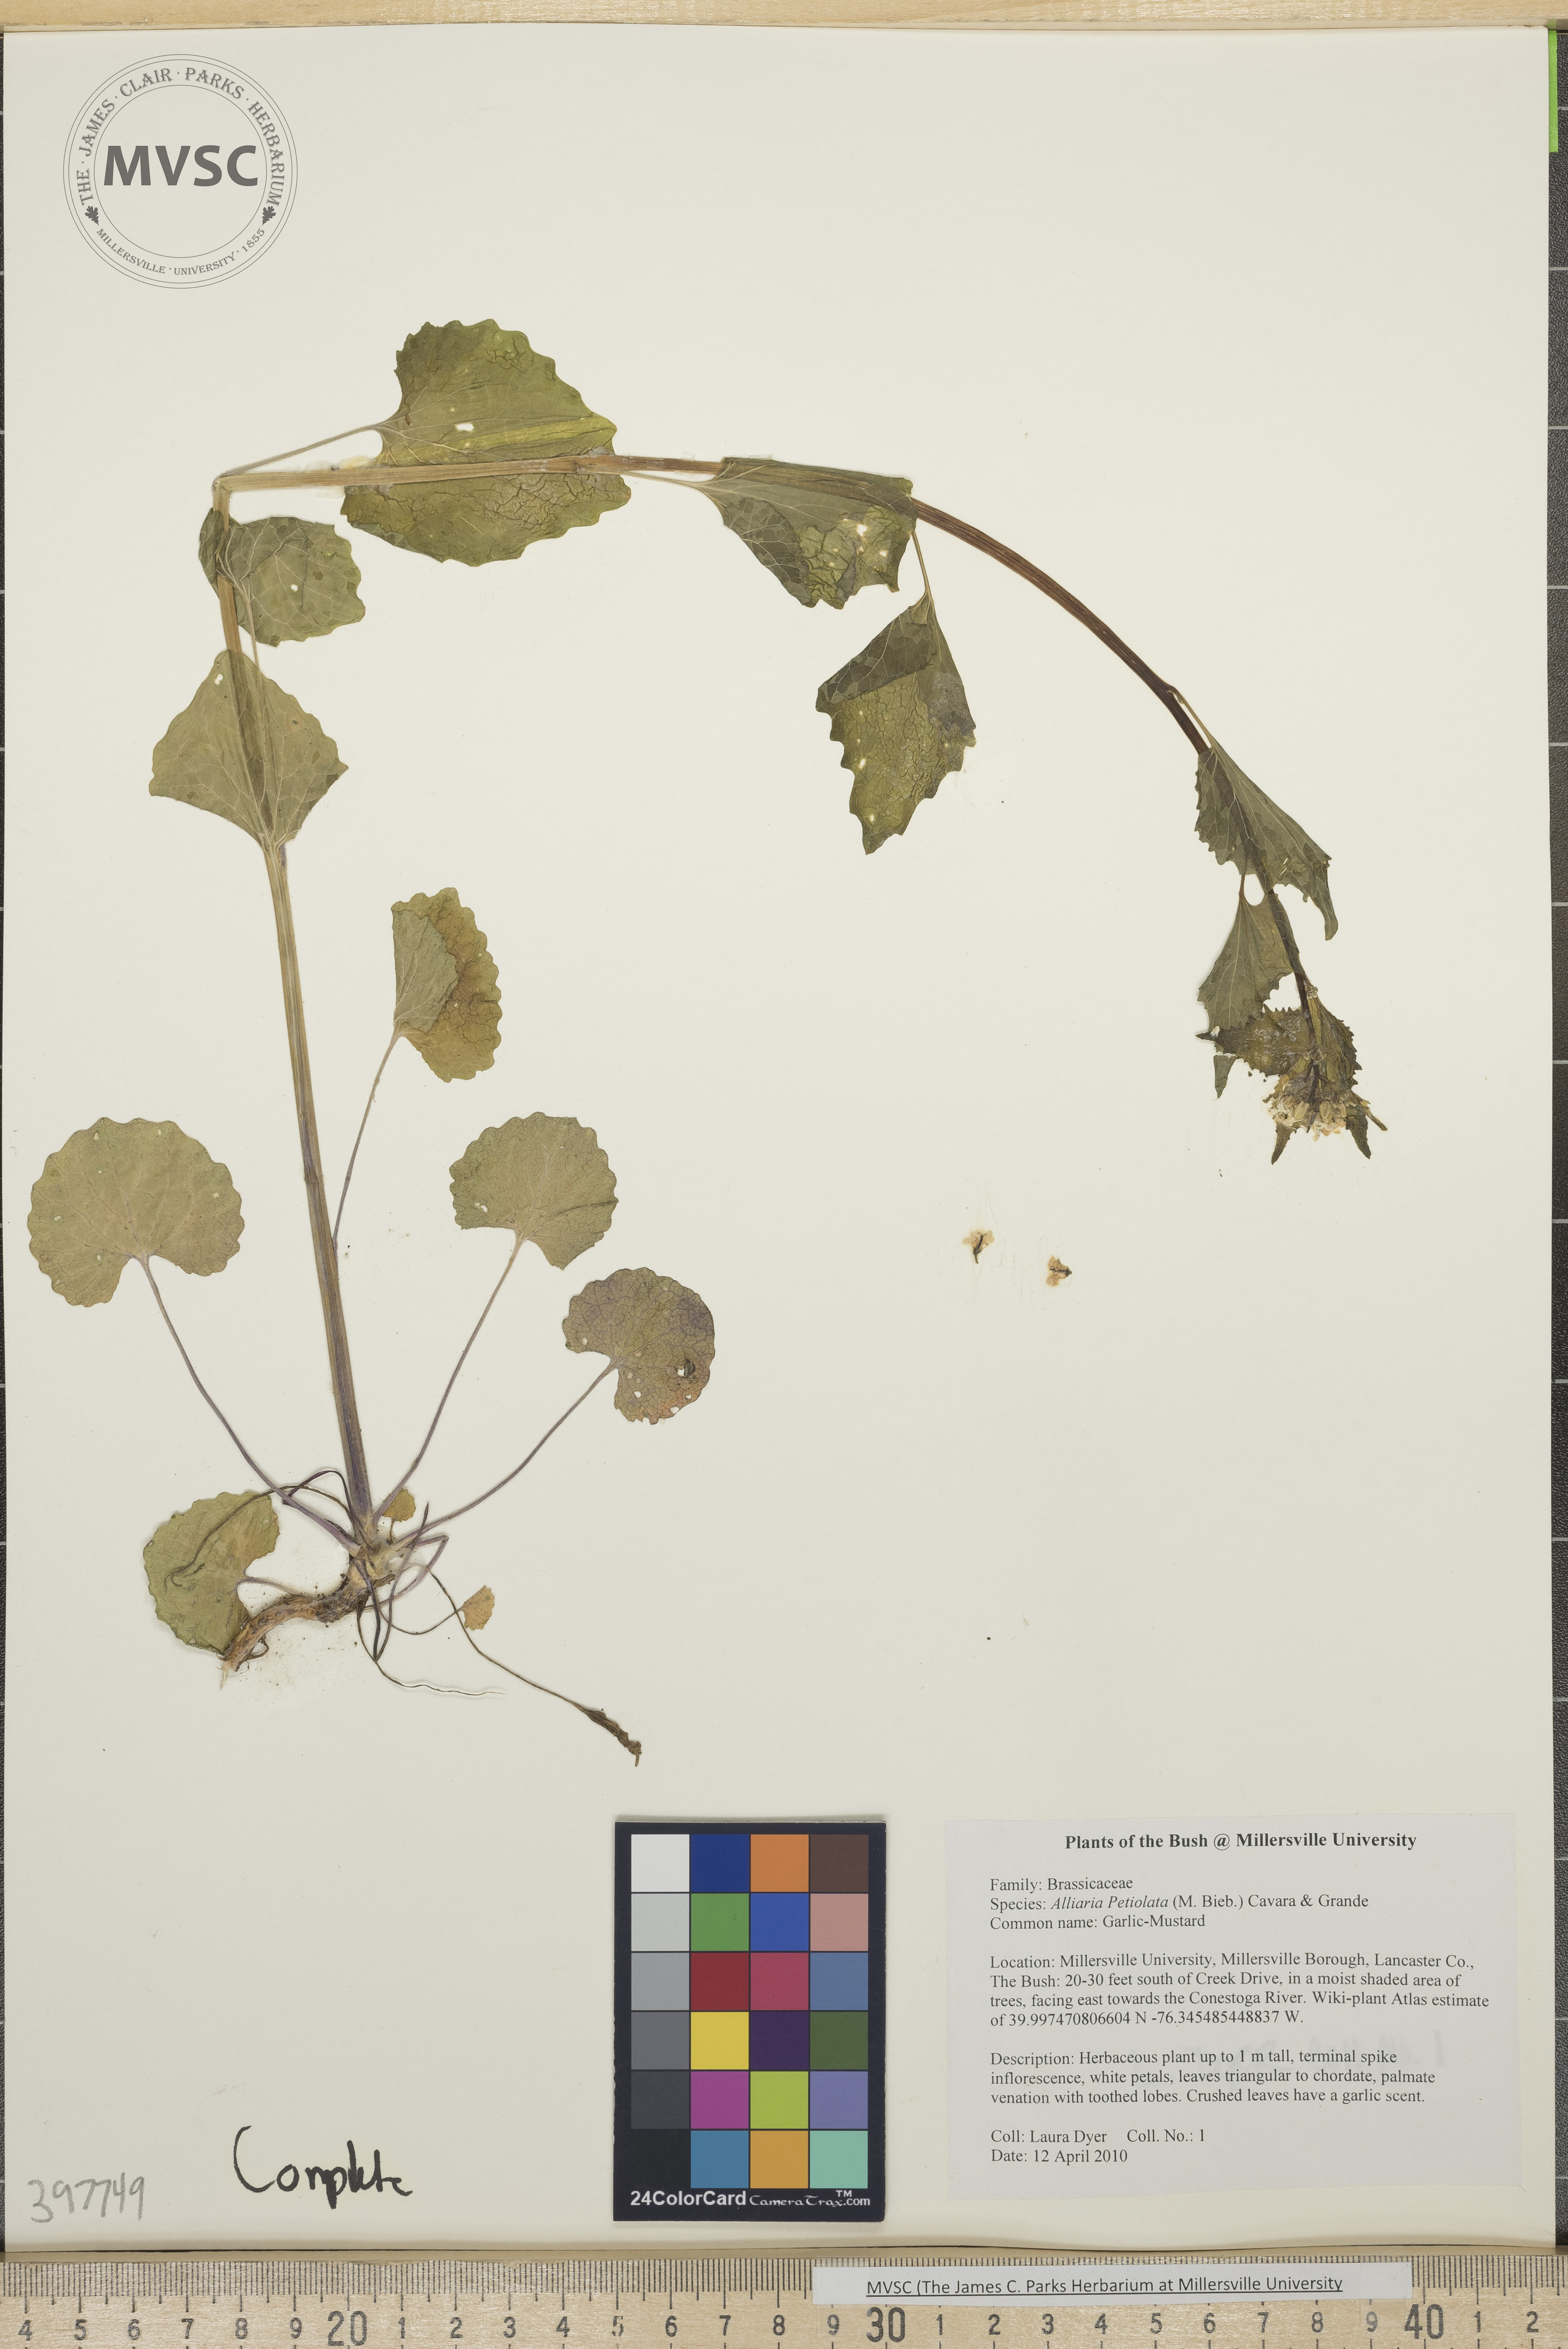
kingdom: Plantae
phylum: Tracheophyta
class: Magnoliopsida
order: Brassicales
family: Brassicaceae
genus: Alliaria
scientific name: Alliaria petiolata
